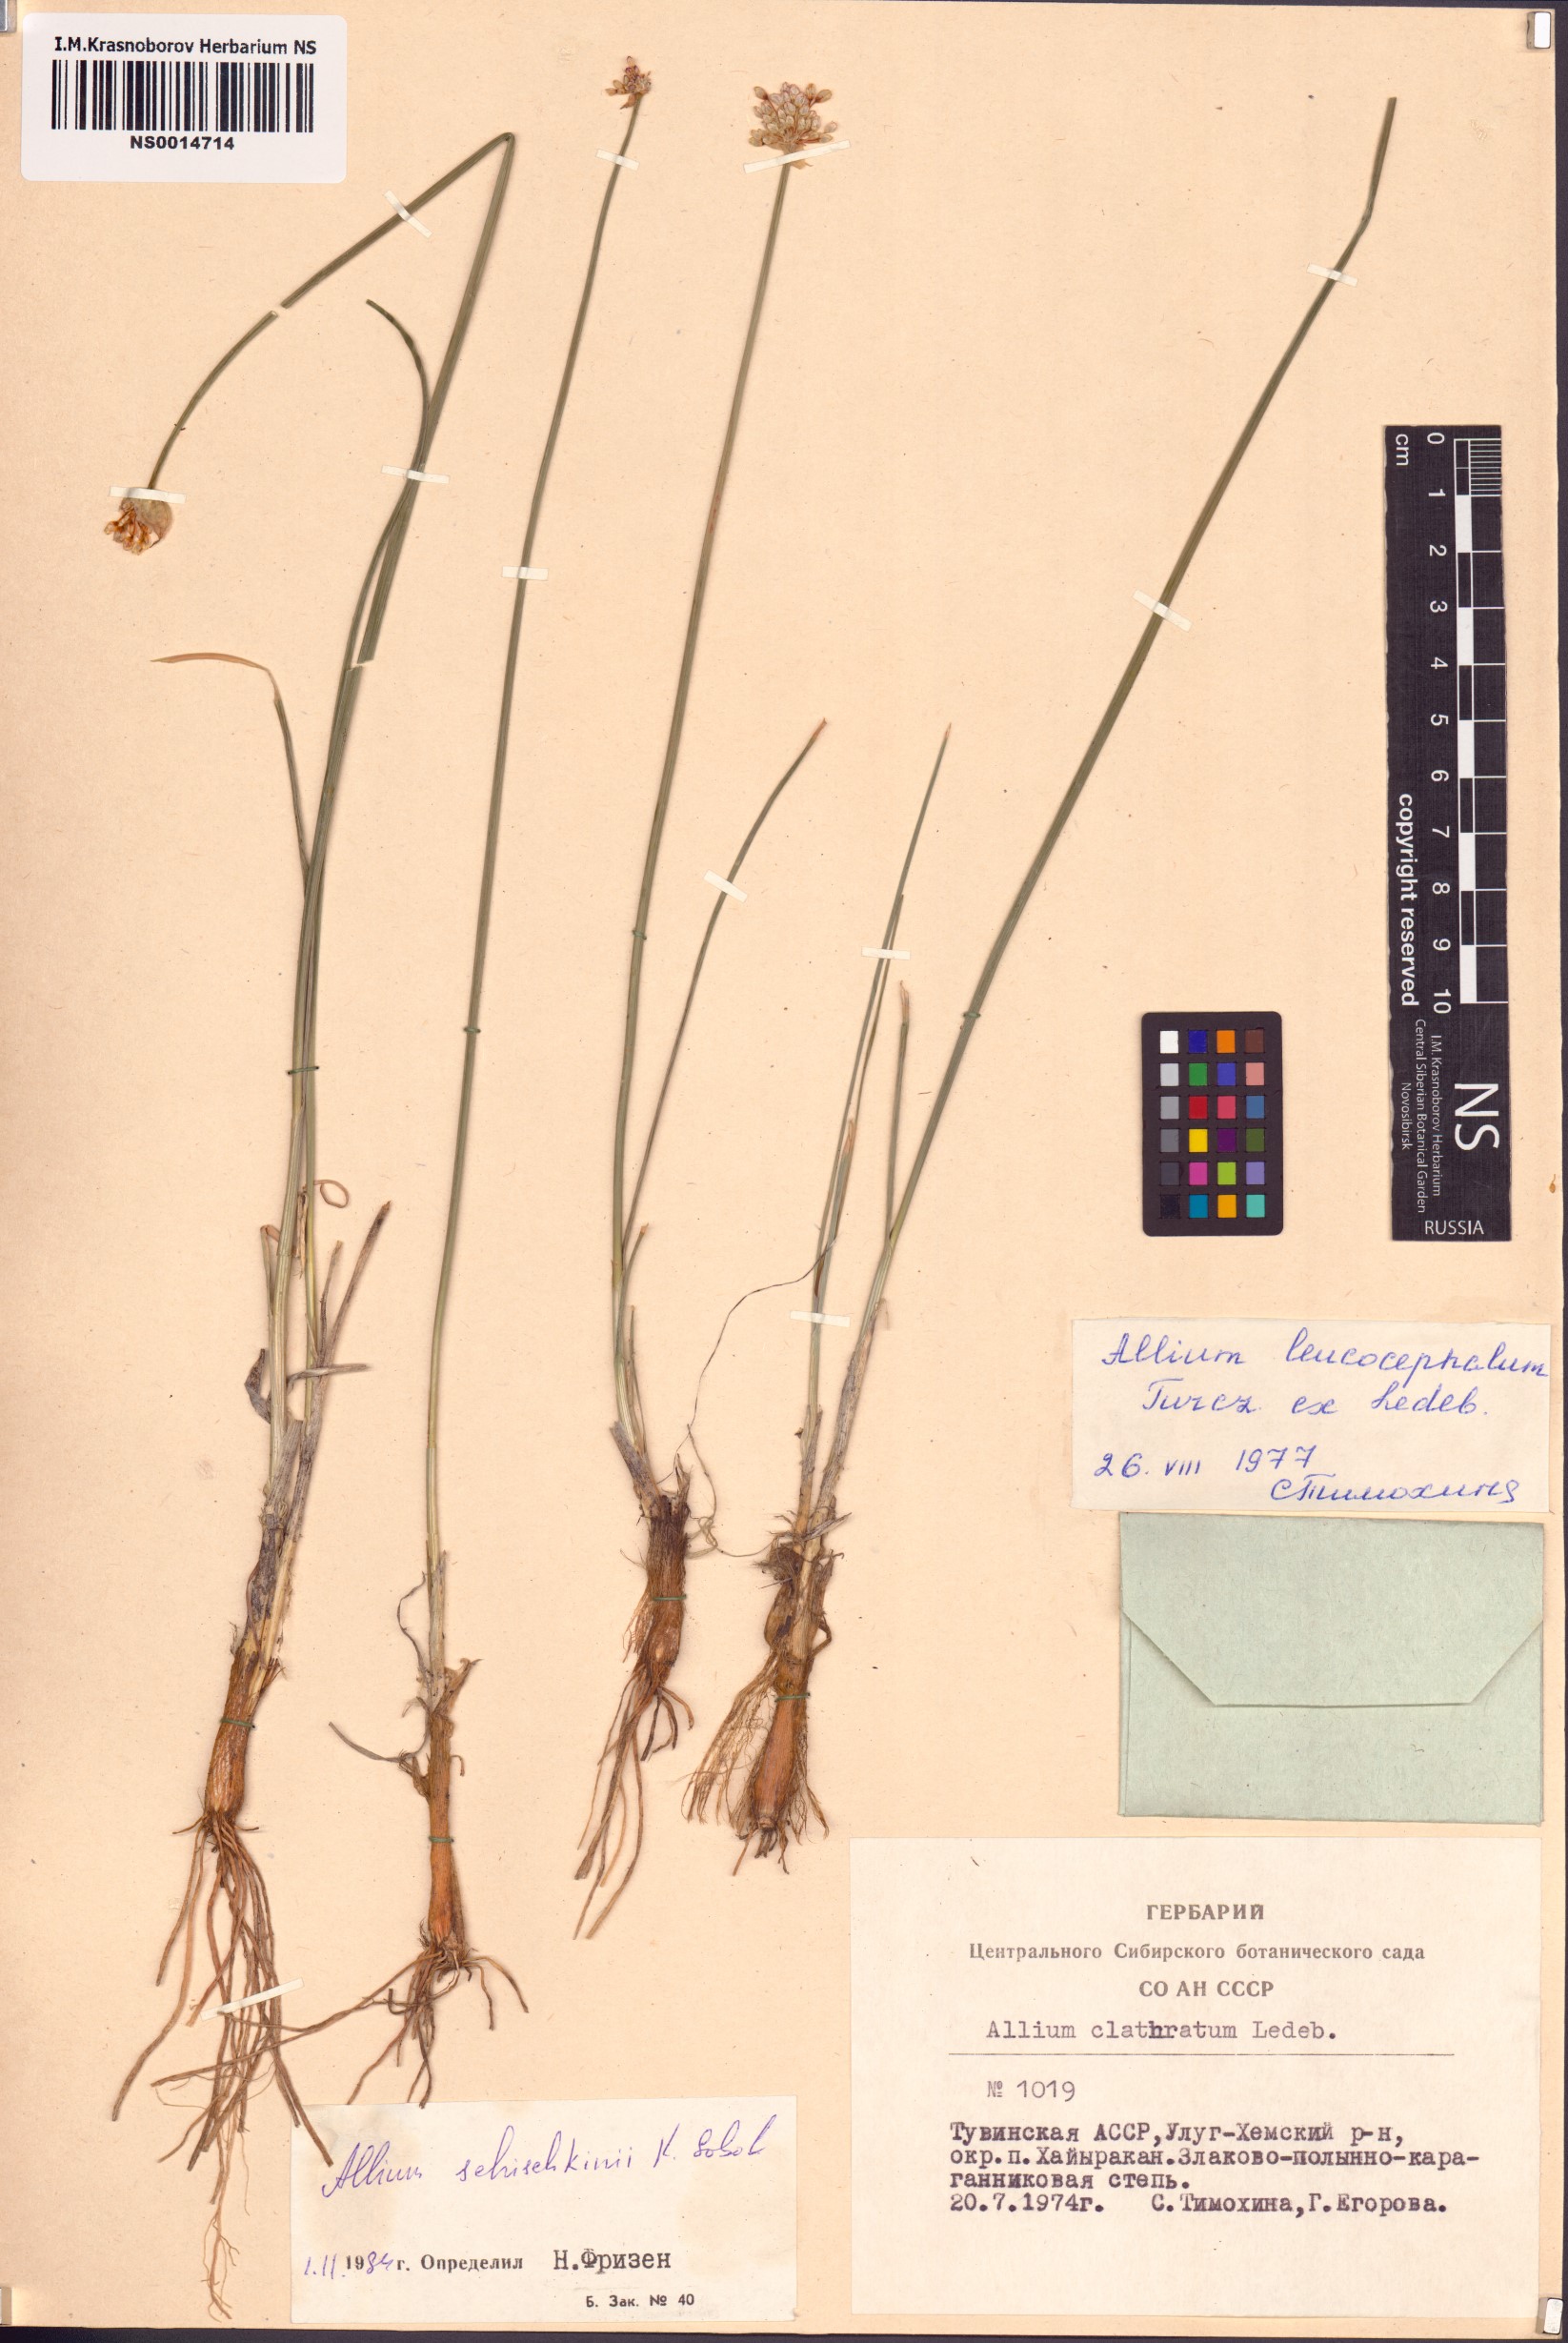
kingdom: Plantae
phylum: Tracheophyta
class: Liliopsida
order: Asparagales
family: Amaryllidaceae
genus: Allium
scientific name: Allium schischkinii
